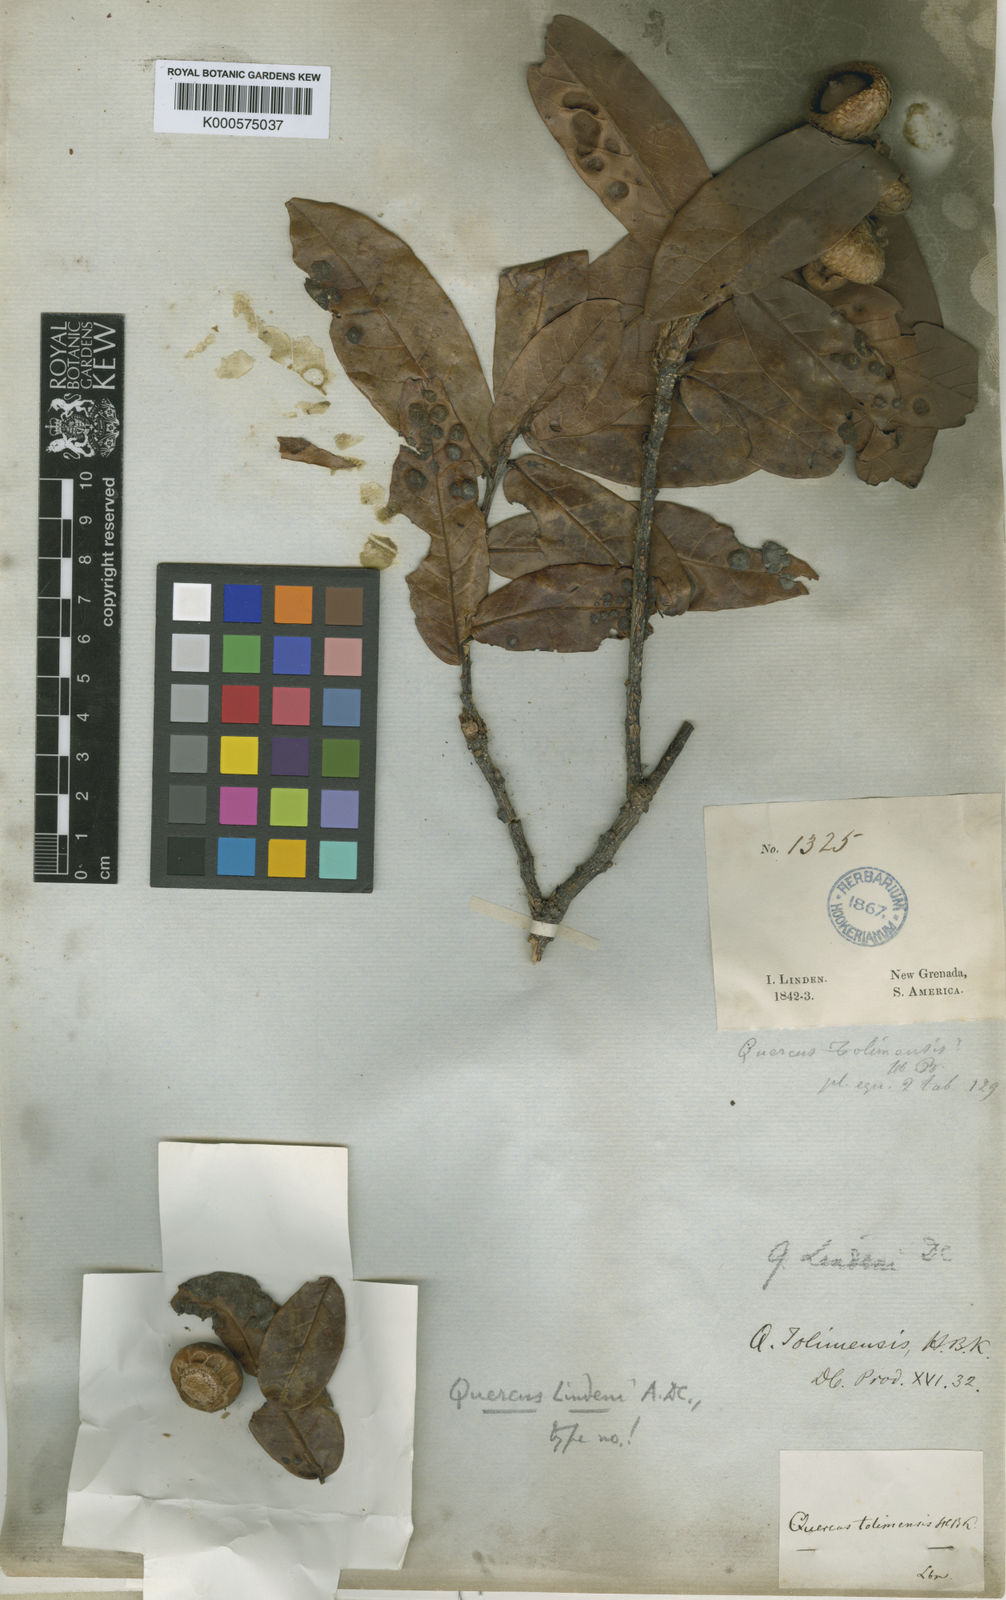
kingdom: Plantae
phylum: Tracheophyta
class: Magnoliopsida
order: Fagales
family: Fagaceae
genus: Quercus
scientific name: Quercus humboldtii
